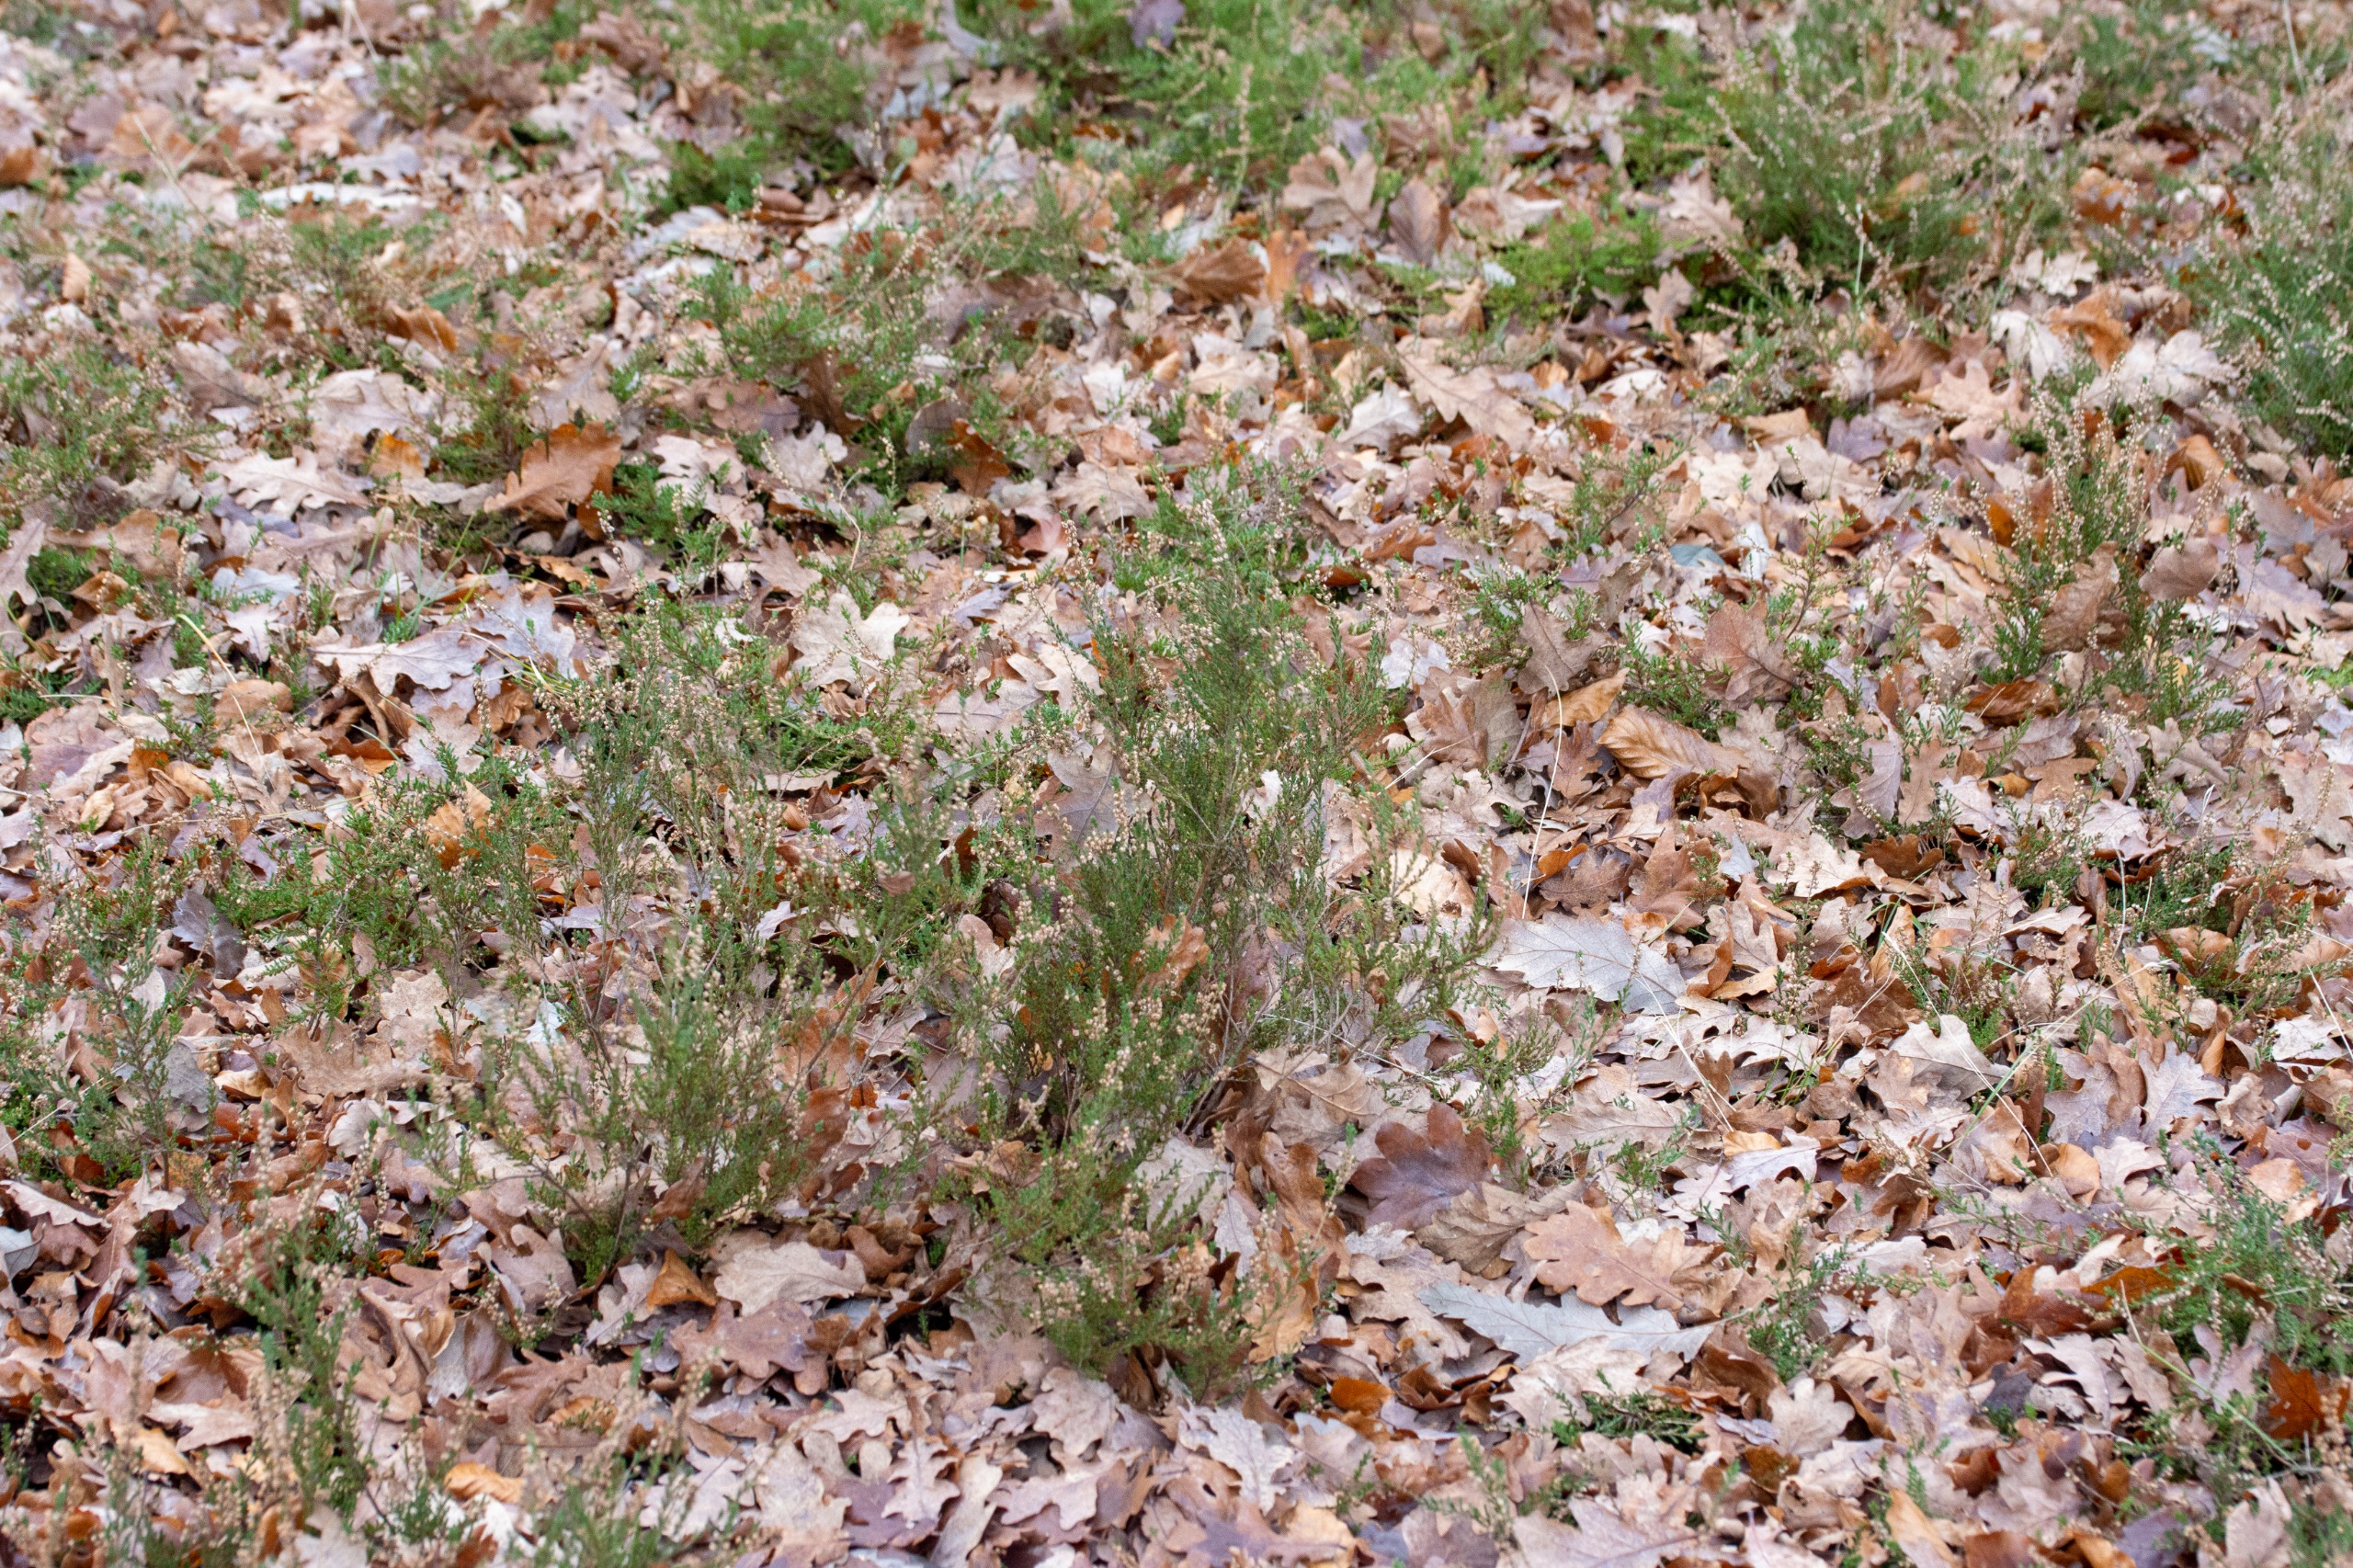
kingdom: Plantae
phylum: Tracheophyta
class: Magnoliopsida
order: Ericales
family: Ericaceae
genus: Calluna
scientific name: Calluna vulgaris
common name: Hedelyng
